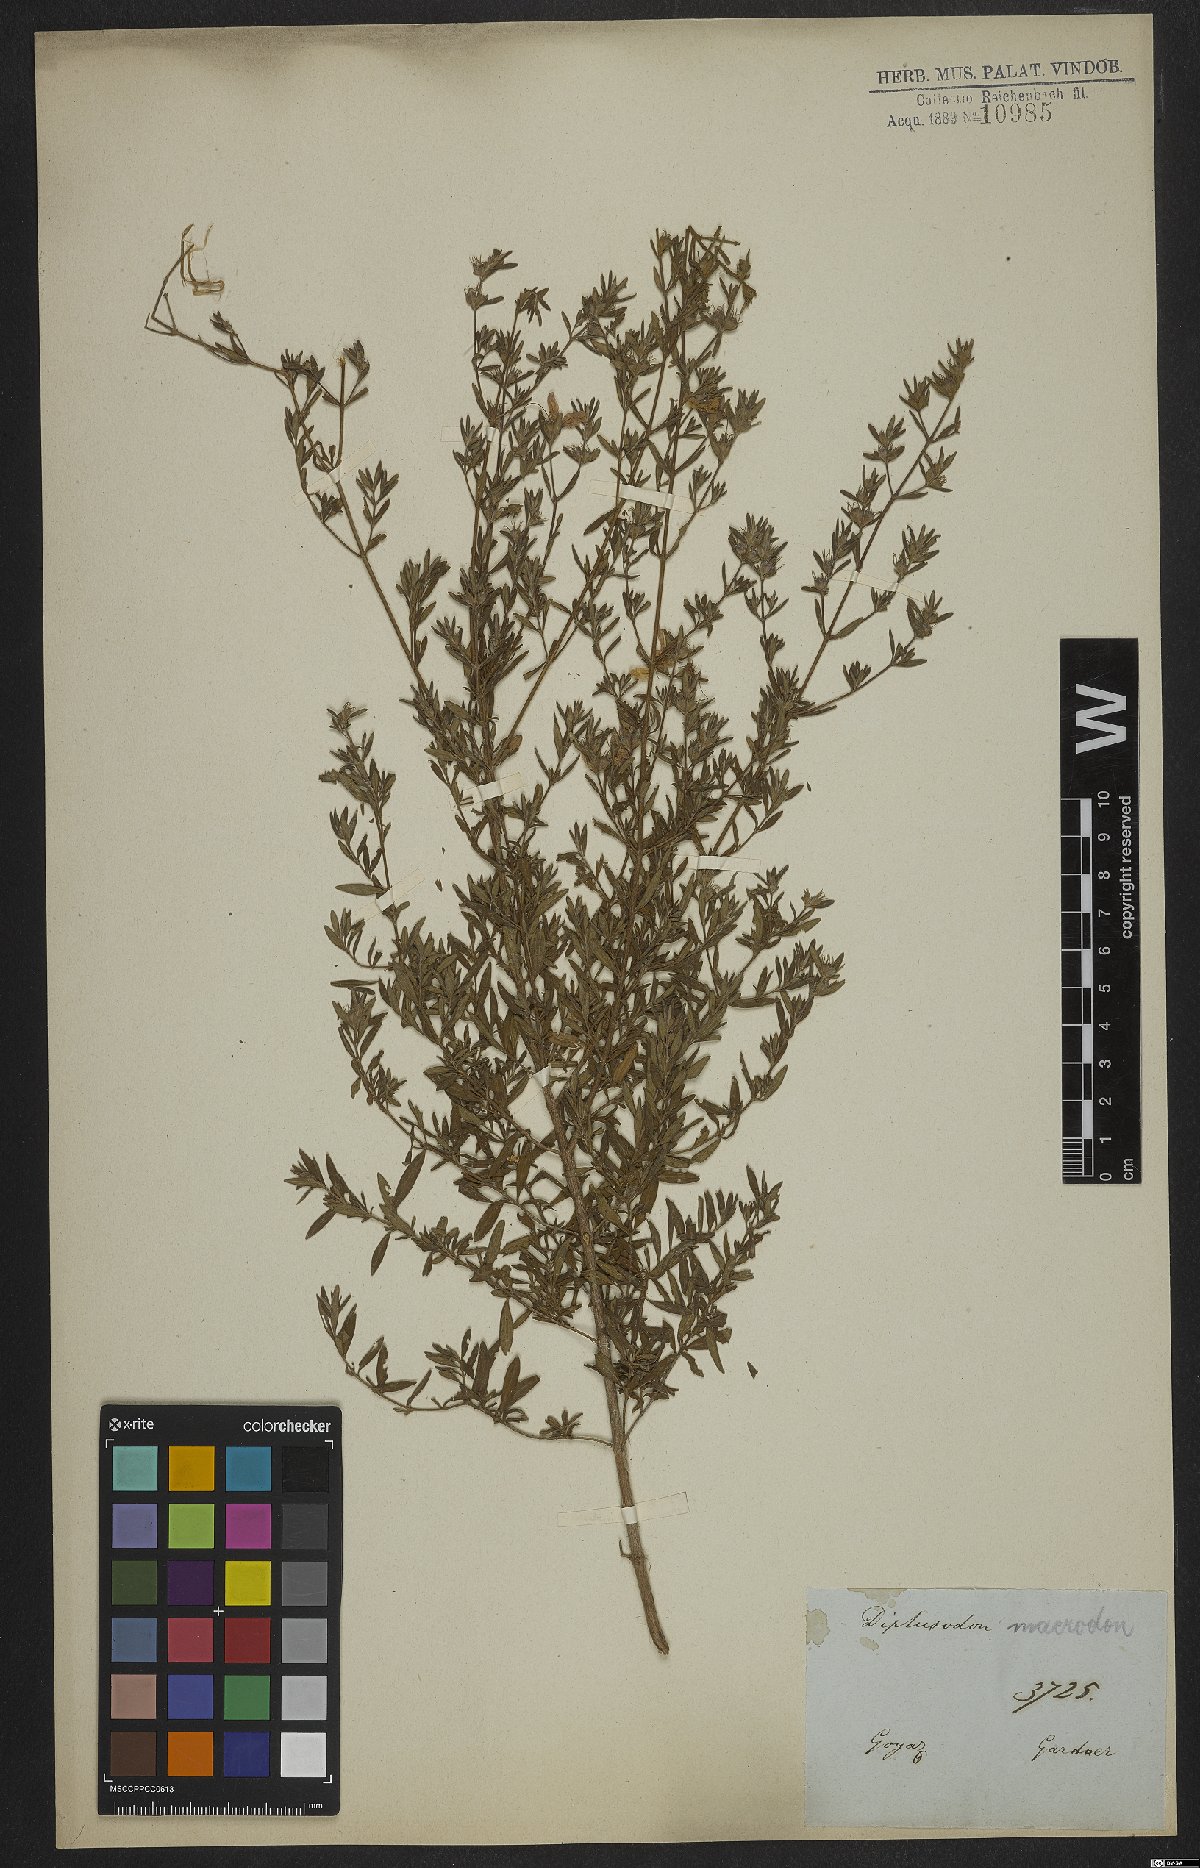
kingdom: Plantae
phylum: Tracheophyta
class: Magnoliopsida
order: Myrtales
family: Lythraceae
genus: Diplusodon
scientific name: Diplusodon macrodon
